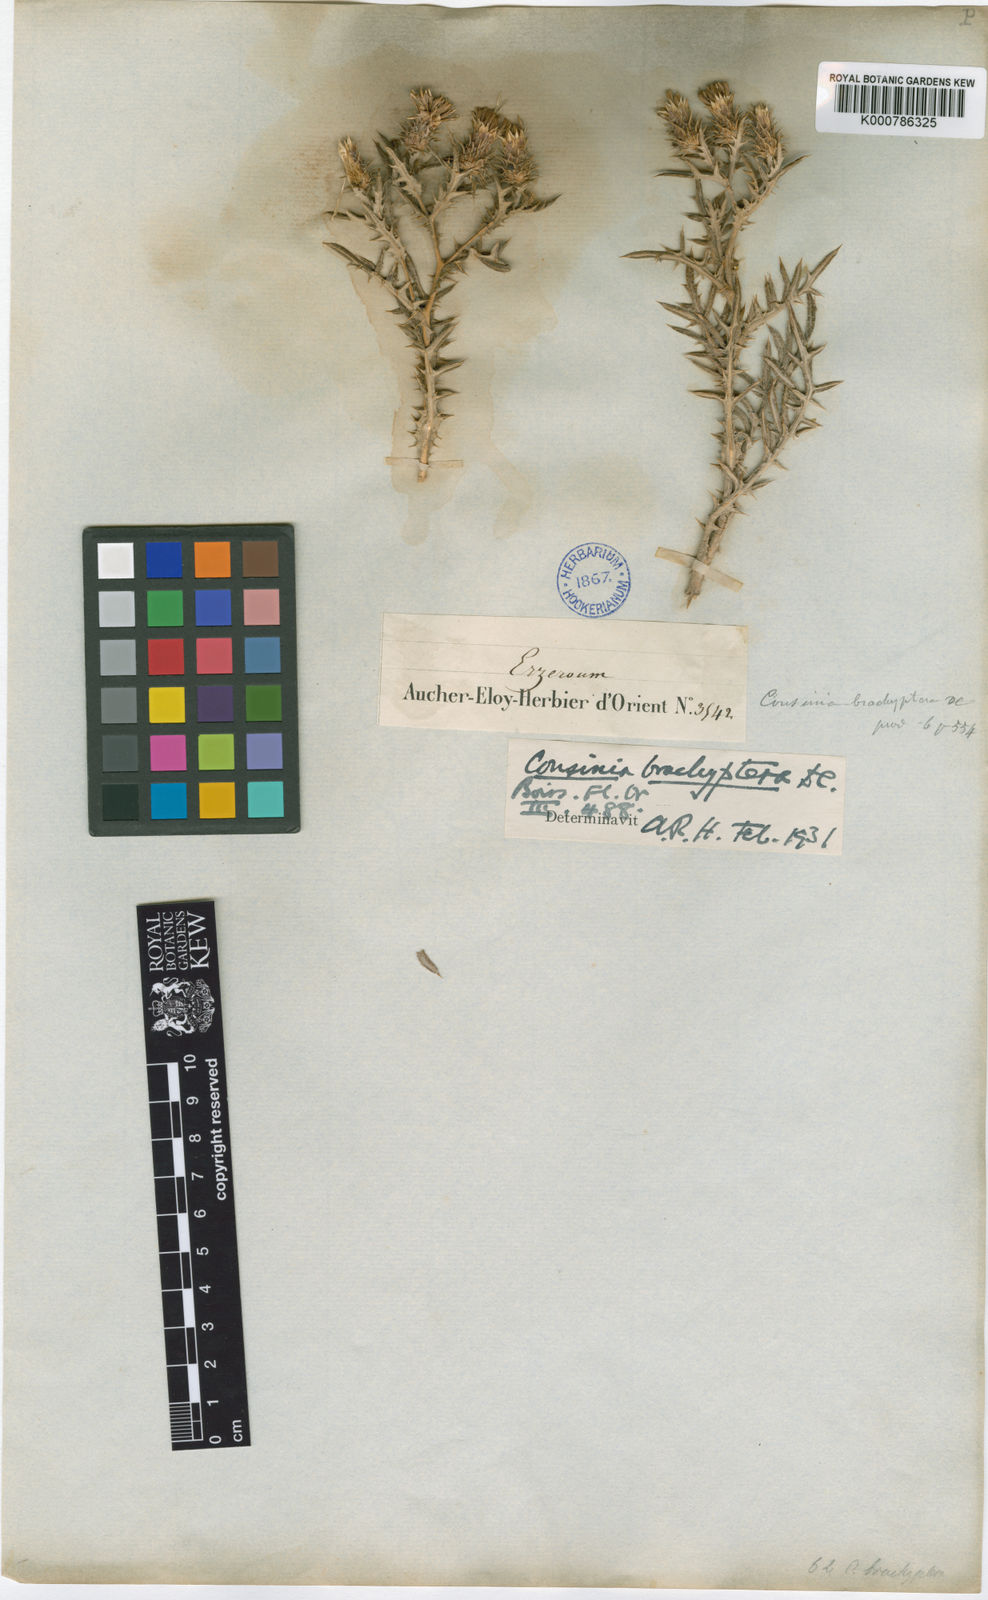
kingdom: Plantae
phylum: Tracheophyta
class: Magnoliopsida
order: Asterales
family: Asteraceae
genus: Cousinia
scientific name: Cousinia brachyptera
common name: Short-winged cousinia
